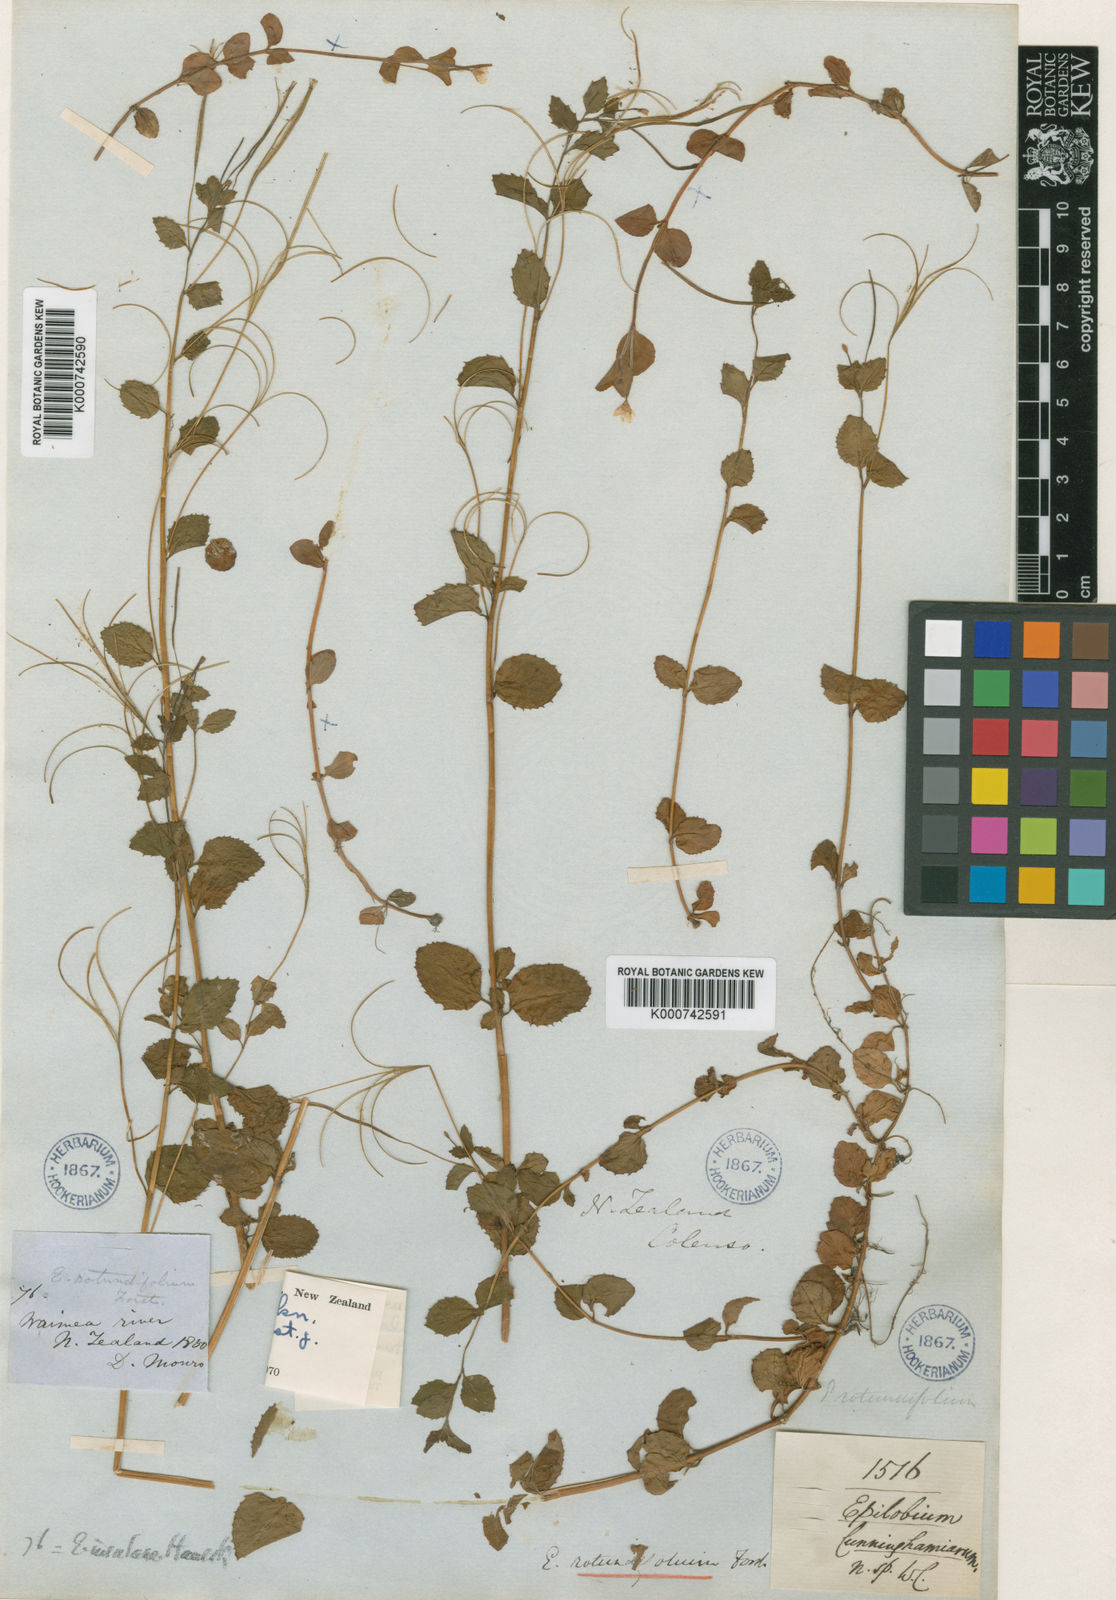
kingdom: Plantae
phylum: Tracheophyta
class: Magnoliopsida
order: Myrtales
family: Onagraceae
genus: Epilobium
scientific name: Epilobium insulare
